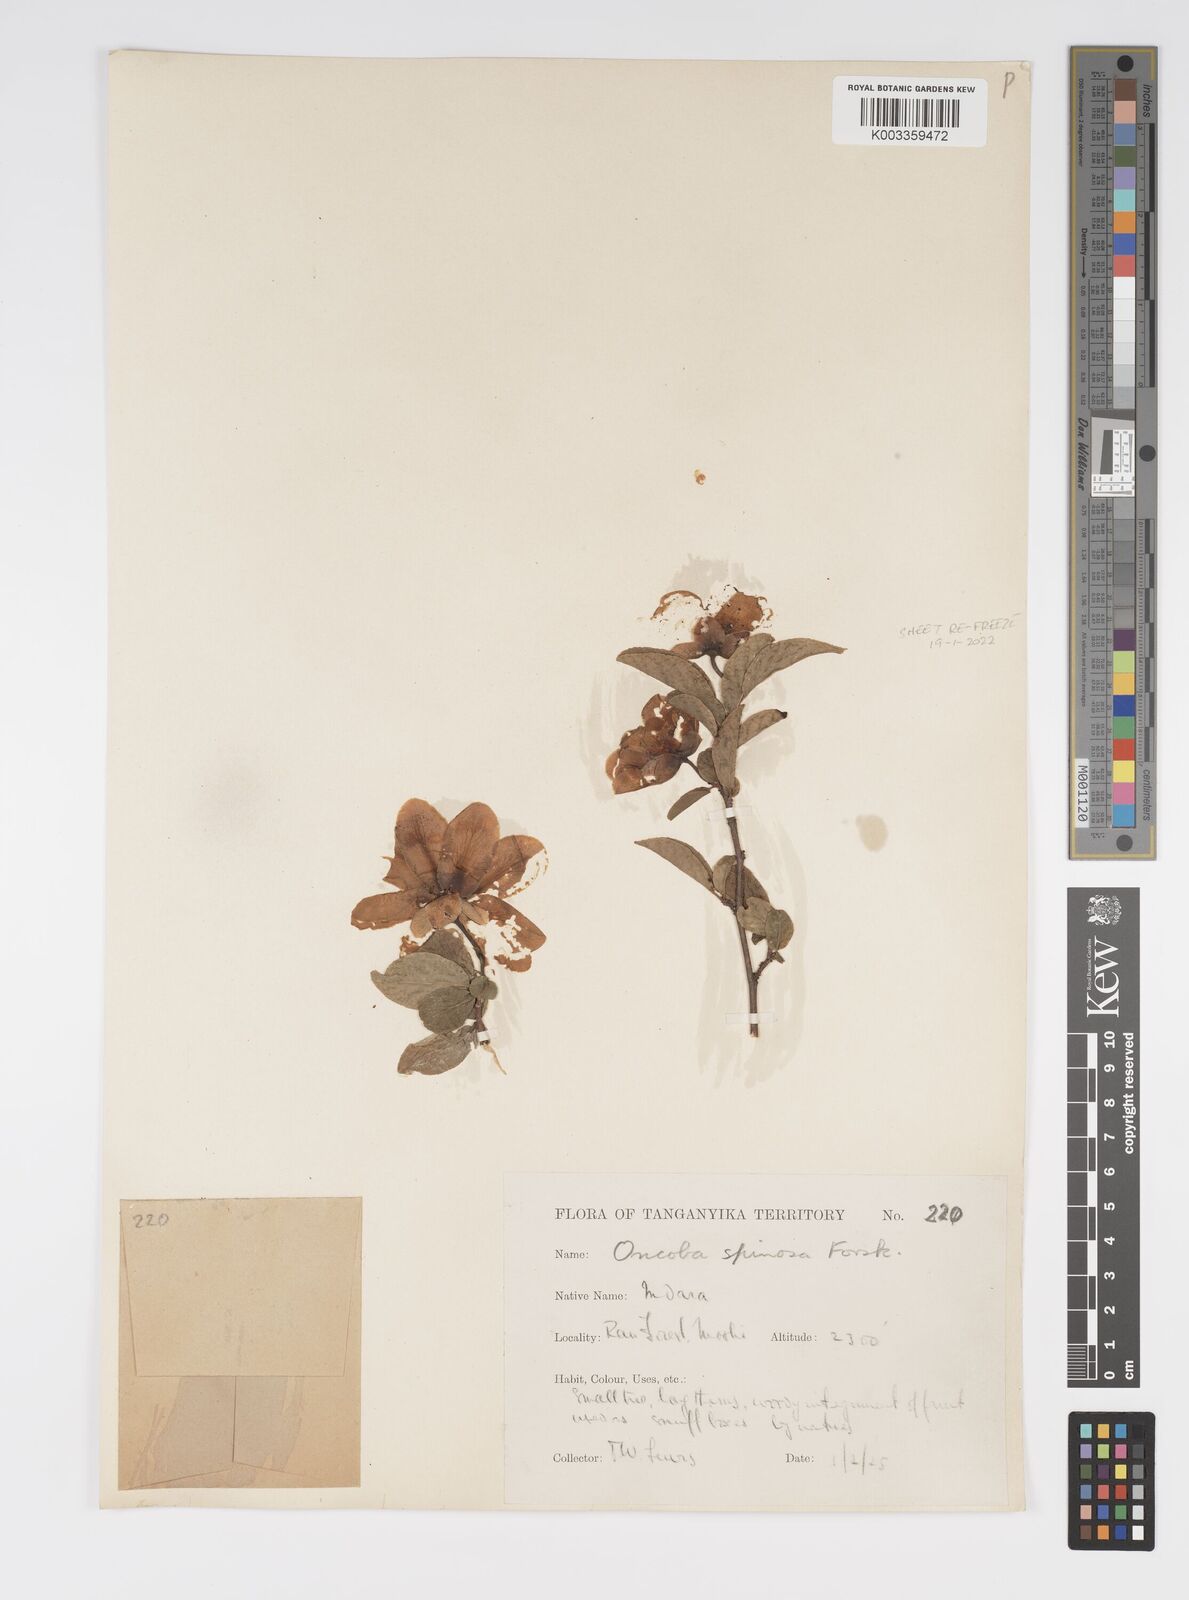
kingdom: Plantae
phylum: Tracheophyta
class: Magnoliopsida
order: Malpighiales
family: Salicaceae
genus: Oncoba
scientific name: Oncoba spinosa
